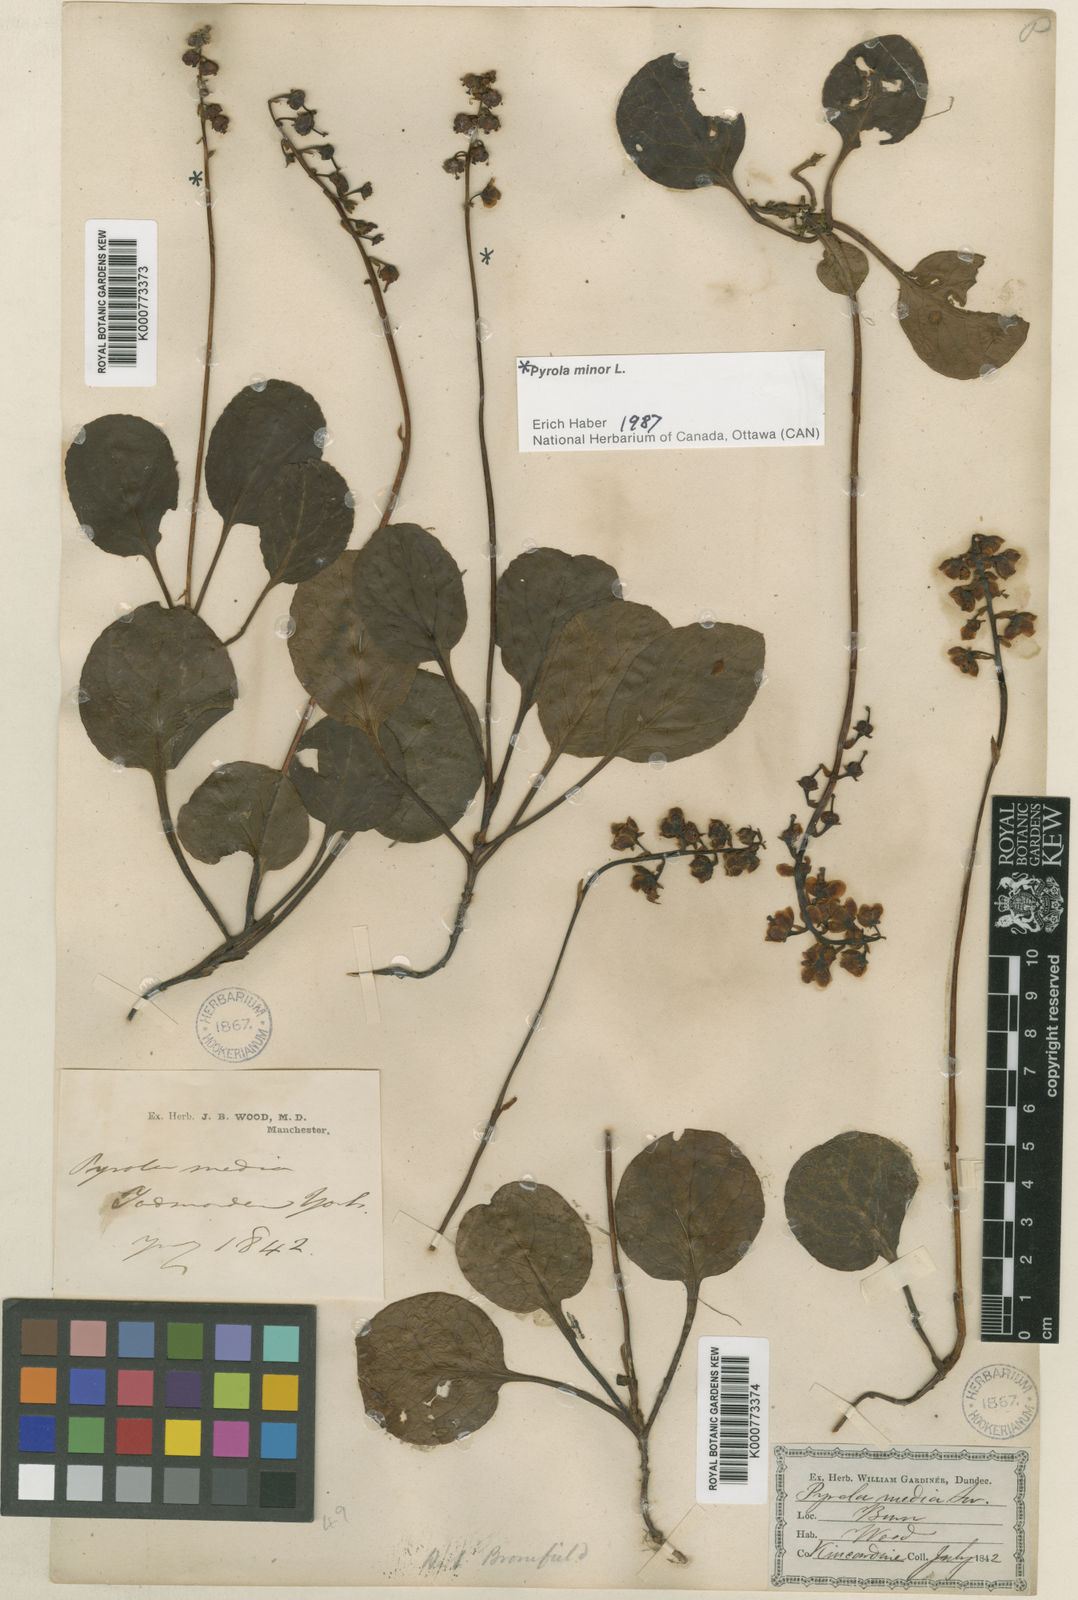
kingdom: Plantae
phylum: Tracheophyta
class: Magnoliopsida
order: Ericales
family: Ericaceae
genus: Pyrola
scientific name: Pyrola media
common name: Intermediate wintergreen
